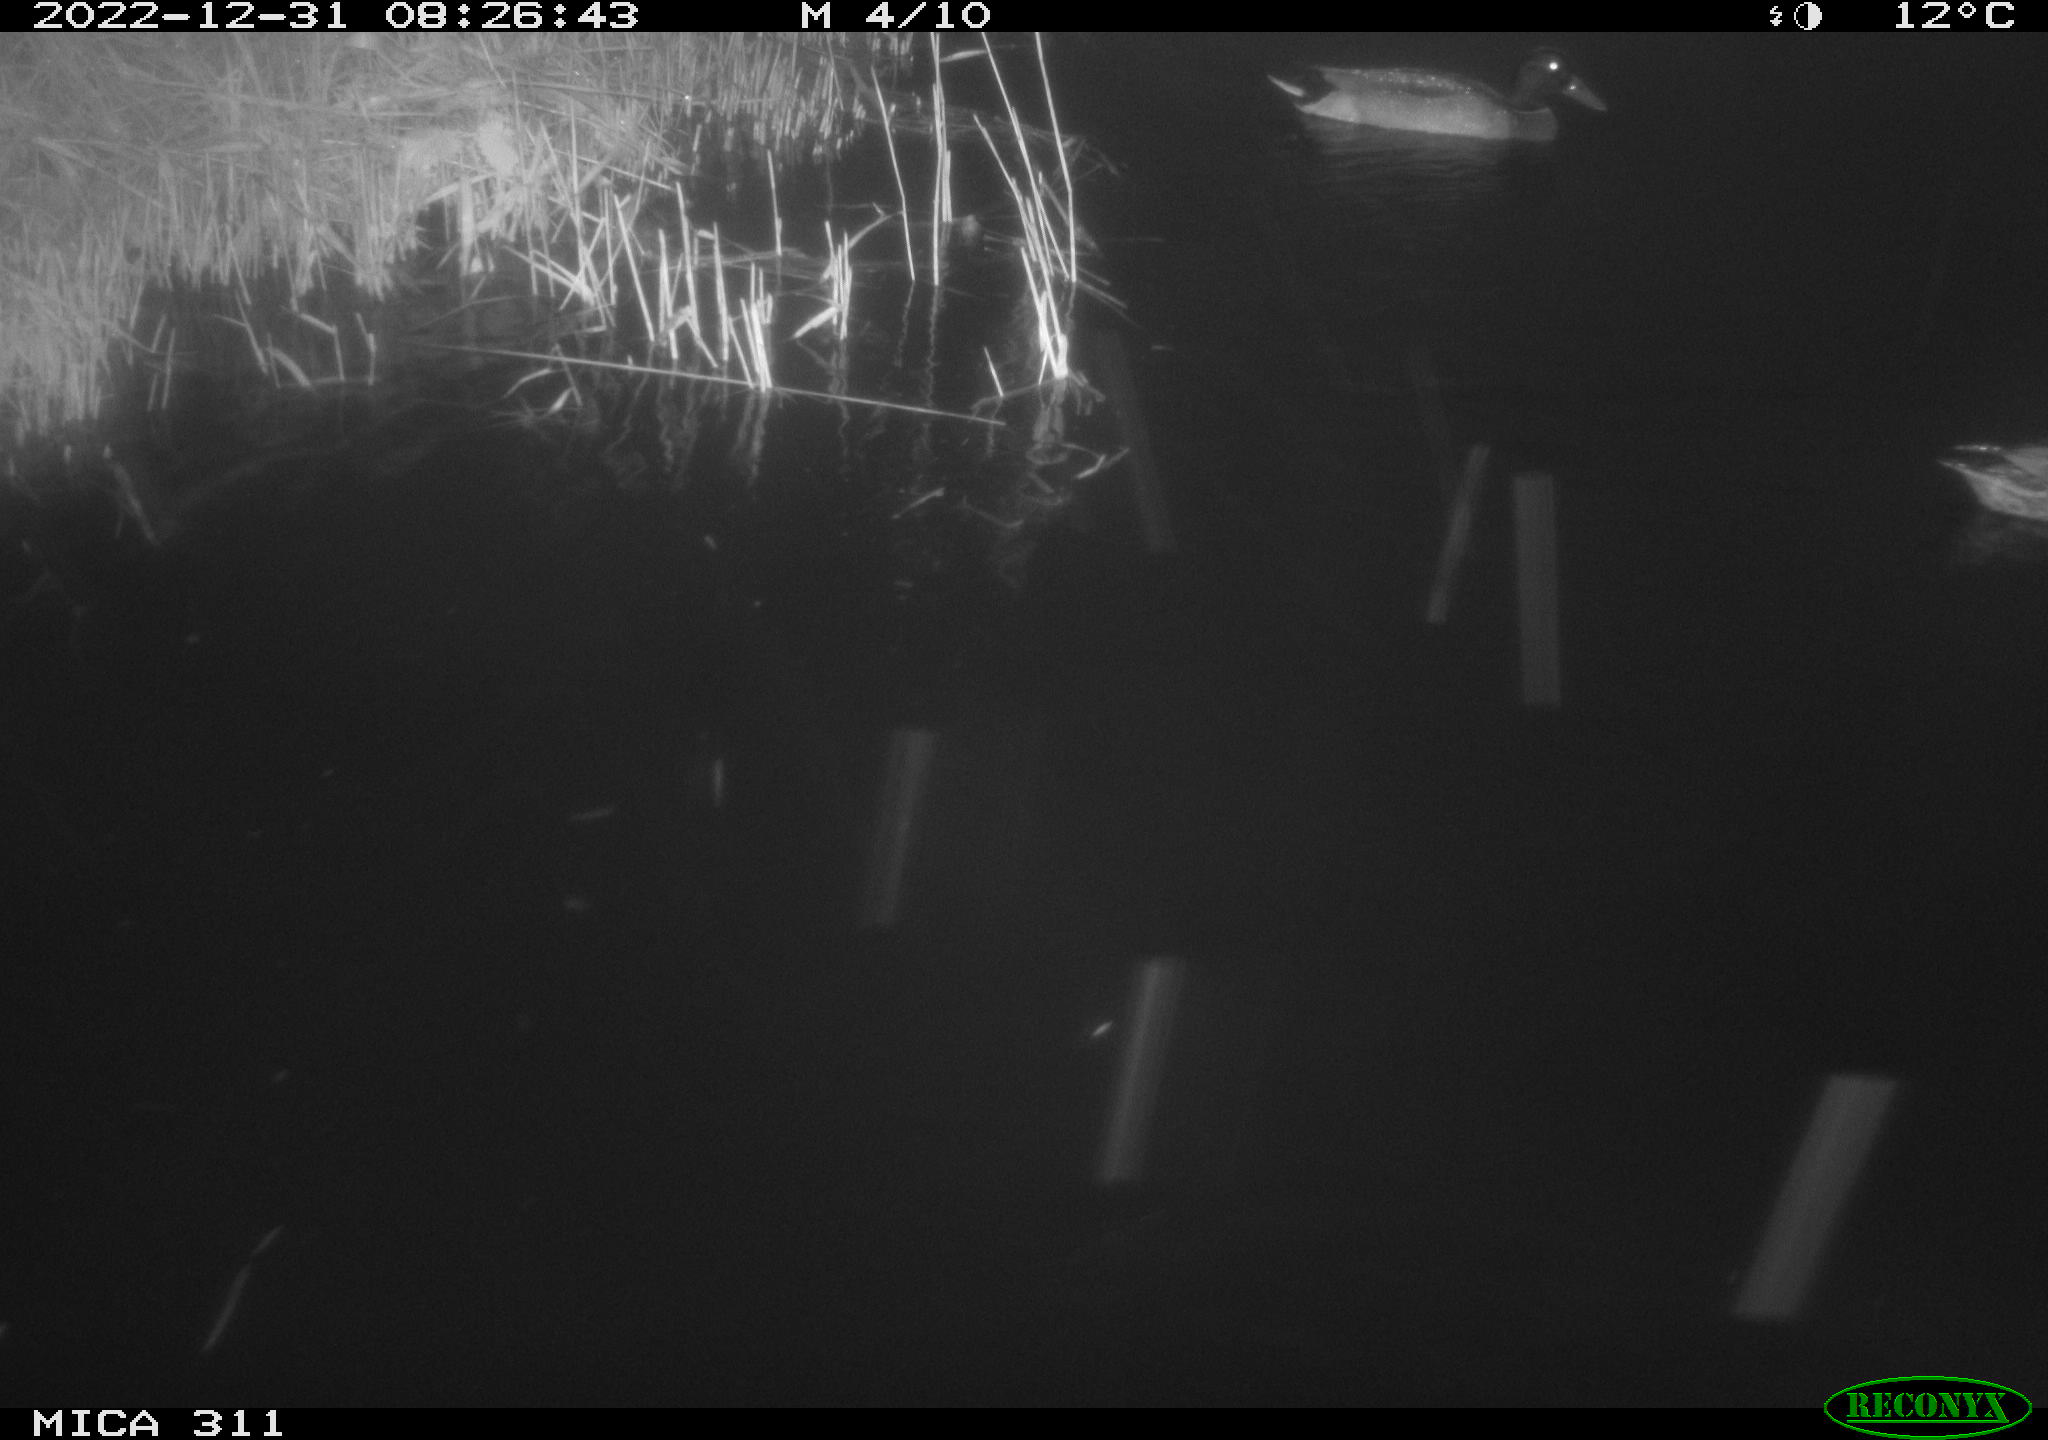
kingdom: Animalia
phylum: Chordata
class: Aves
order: Anseriformes
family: Anatidae
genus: Anas
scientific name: Anas
